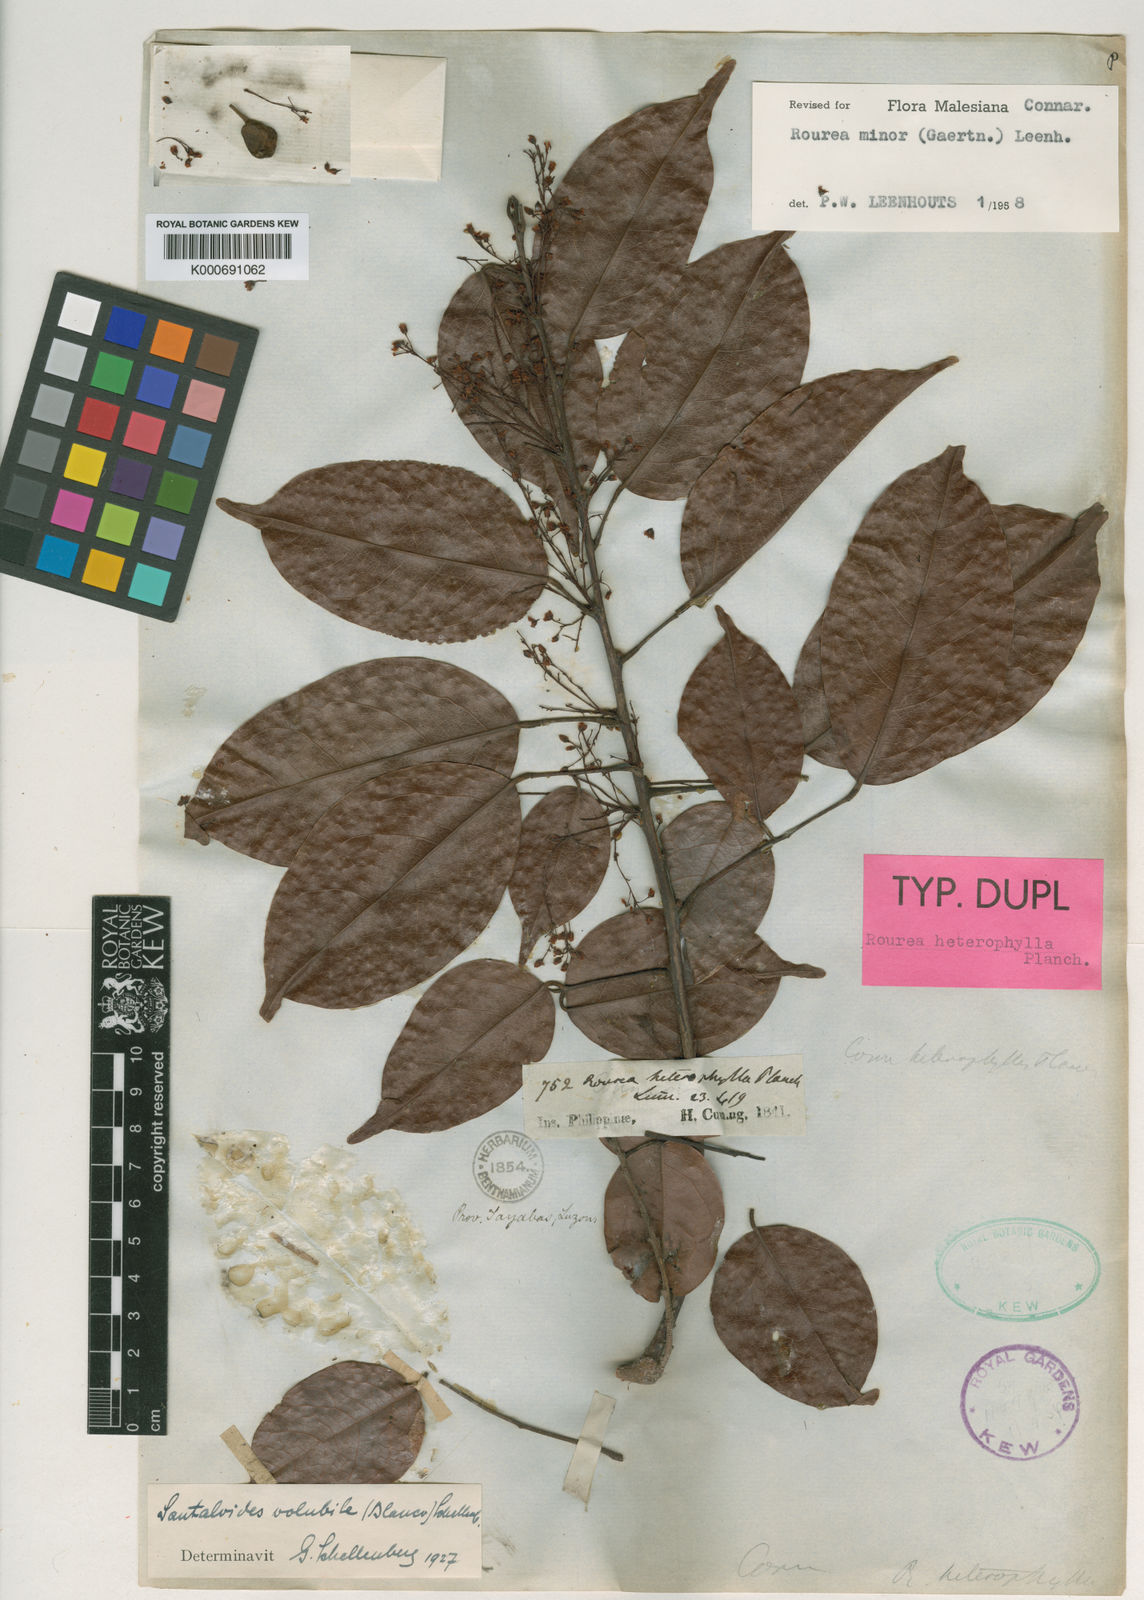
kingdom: Plantae
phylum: Tracheophyta
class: Magnoliopsida
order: Oxalidales
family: Connaraceae
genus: Rourea
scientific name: Rourea
